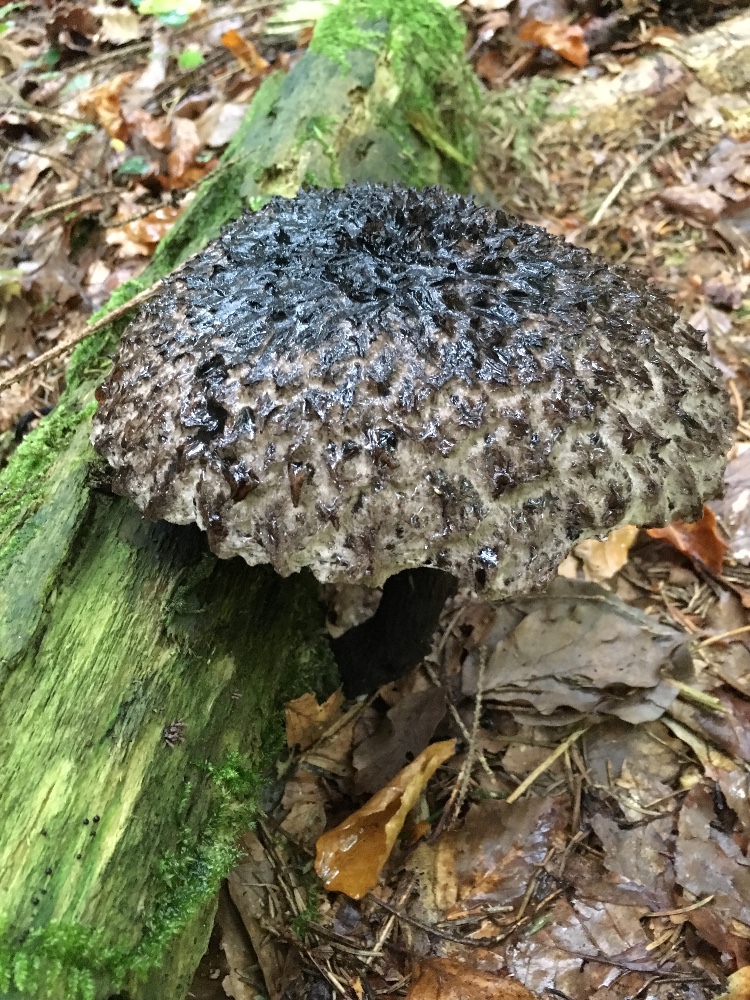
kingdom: Fungi
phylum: Basidiomycota
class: Agaricomycetes
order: Boletales
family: Boletaceae
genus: Strobilomyces
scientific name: Strobilomyces
